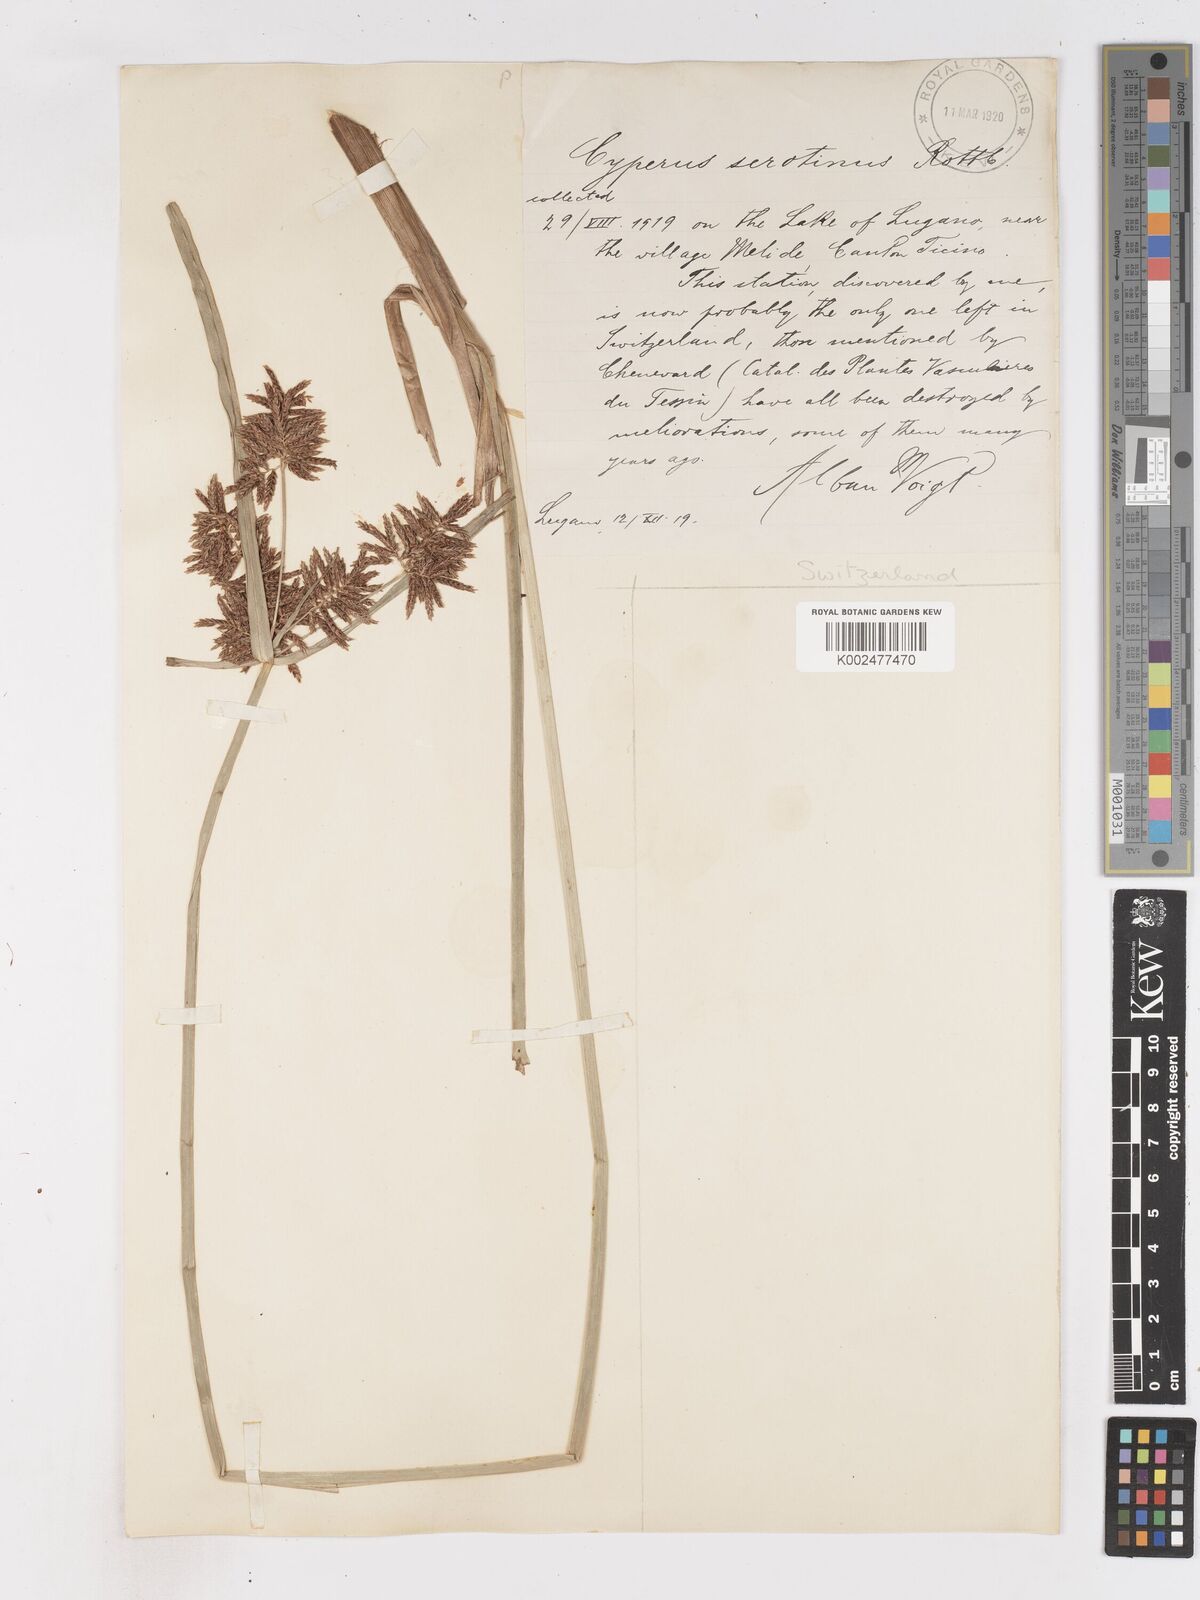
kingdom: Plantae
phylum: Tracheophyta
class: Liliopsida
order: Poales
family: Cyperaceae
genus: Cyperus
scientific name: Cyperus serotinus
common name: Tidalmarsh flatsedge
